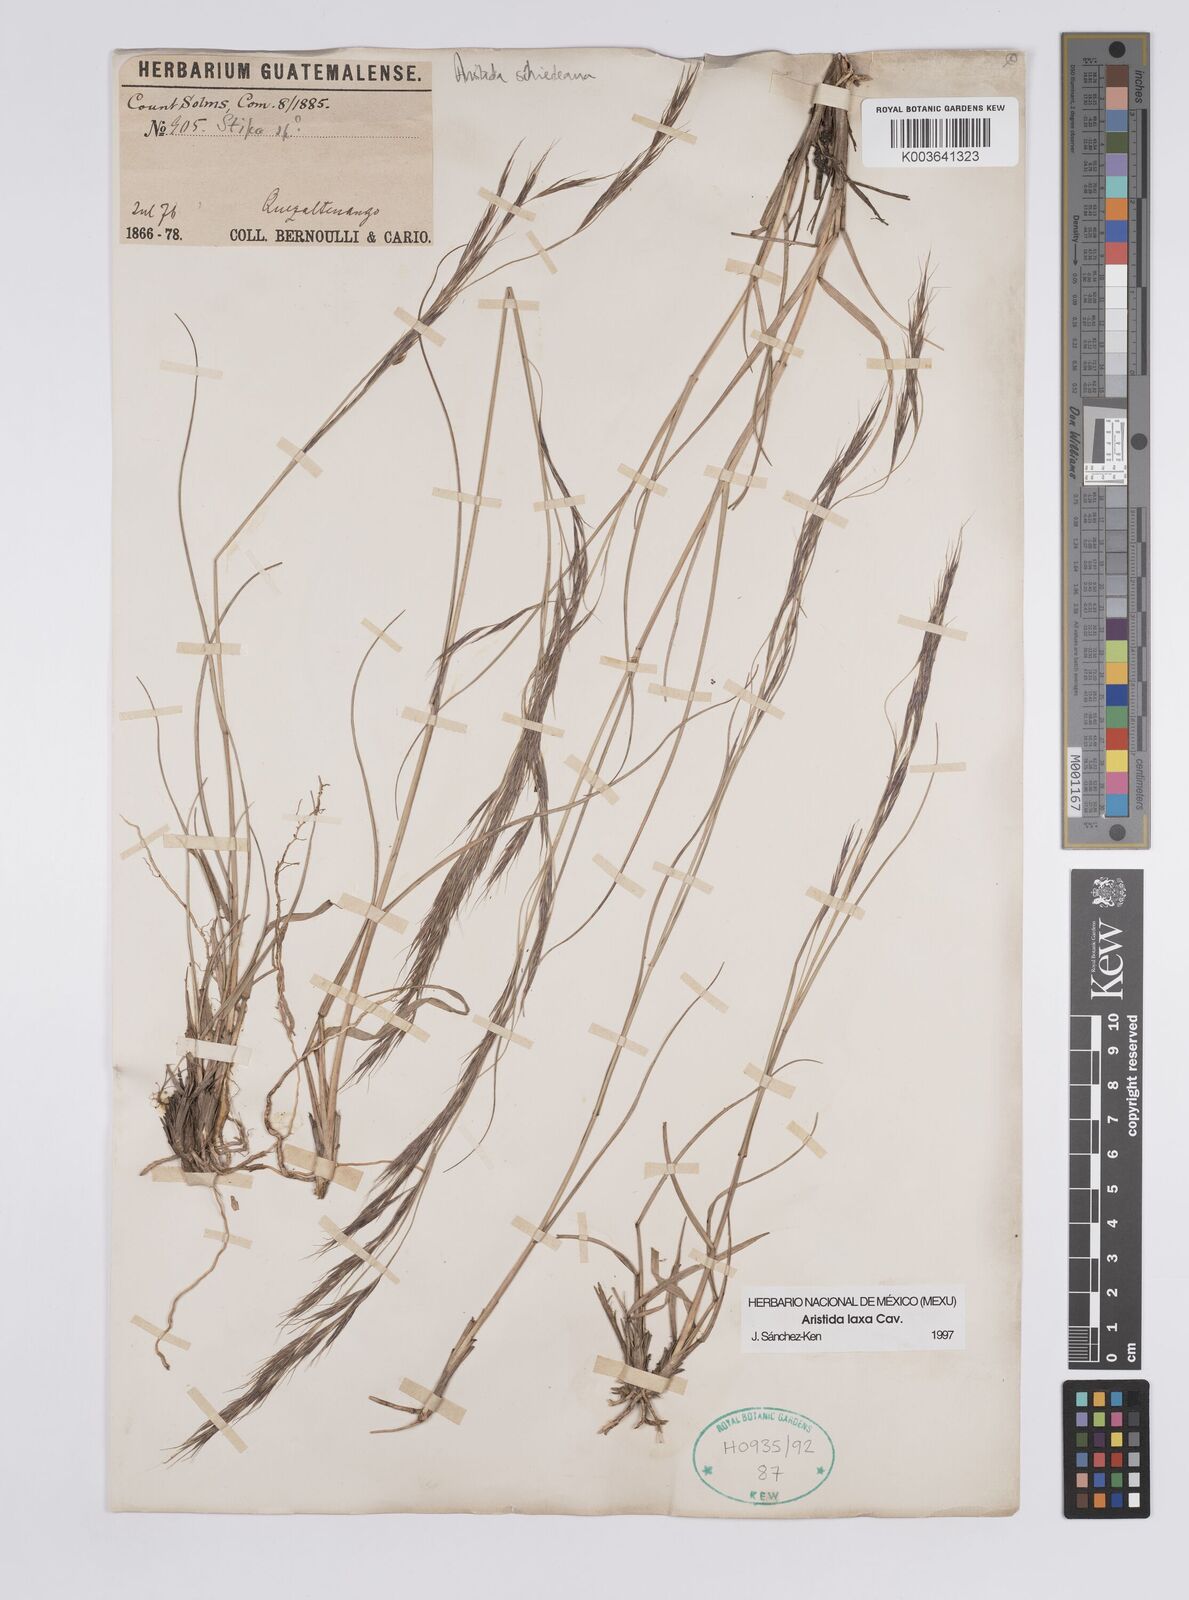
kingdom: Plantae
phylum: Tracheophyta
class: Liliopsida
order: Poales
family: Poaceae
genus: Aristida
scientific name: Aristida laxa
